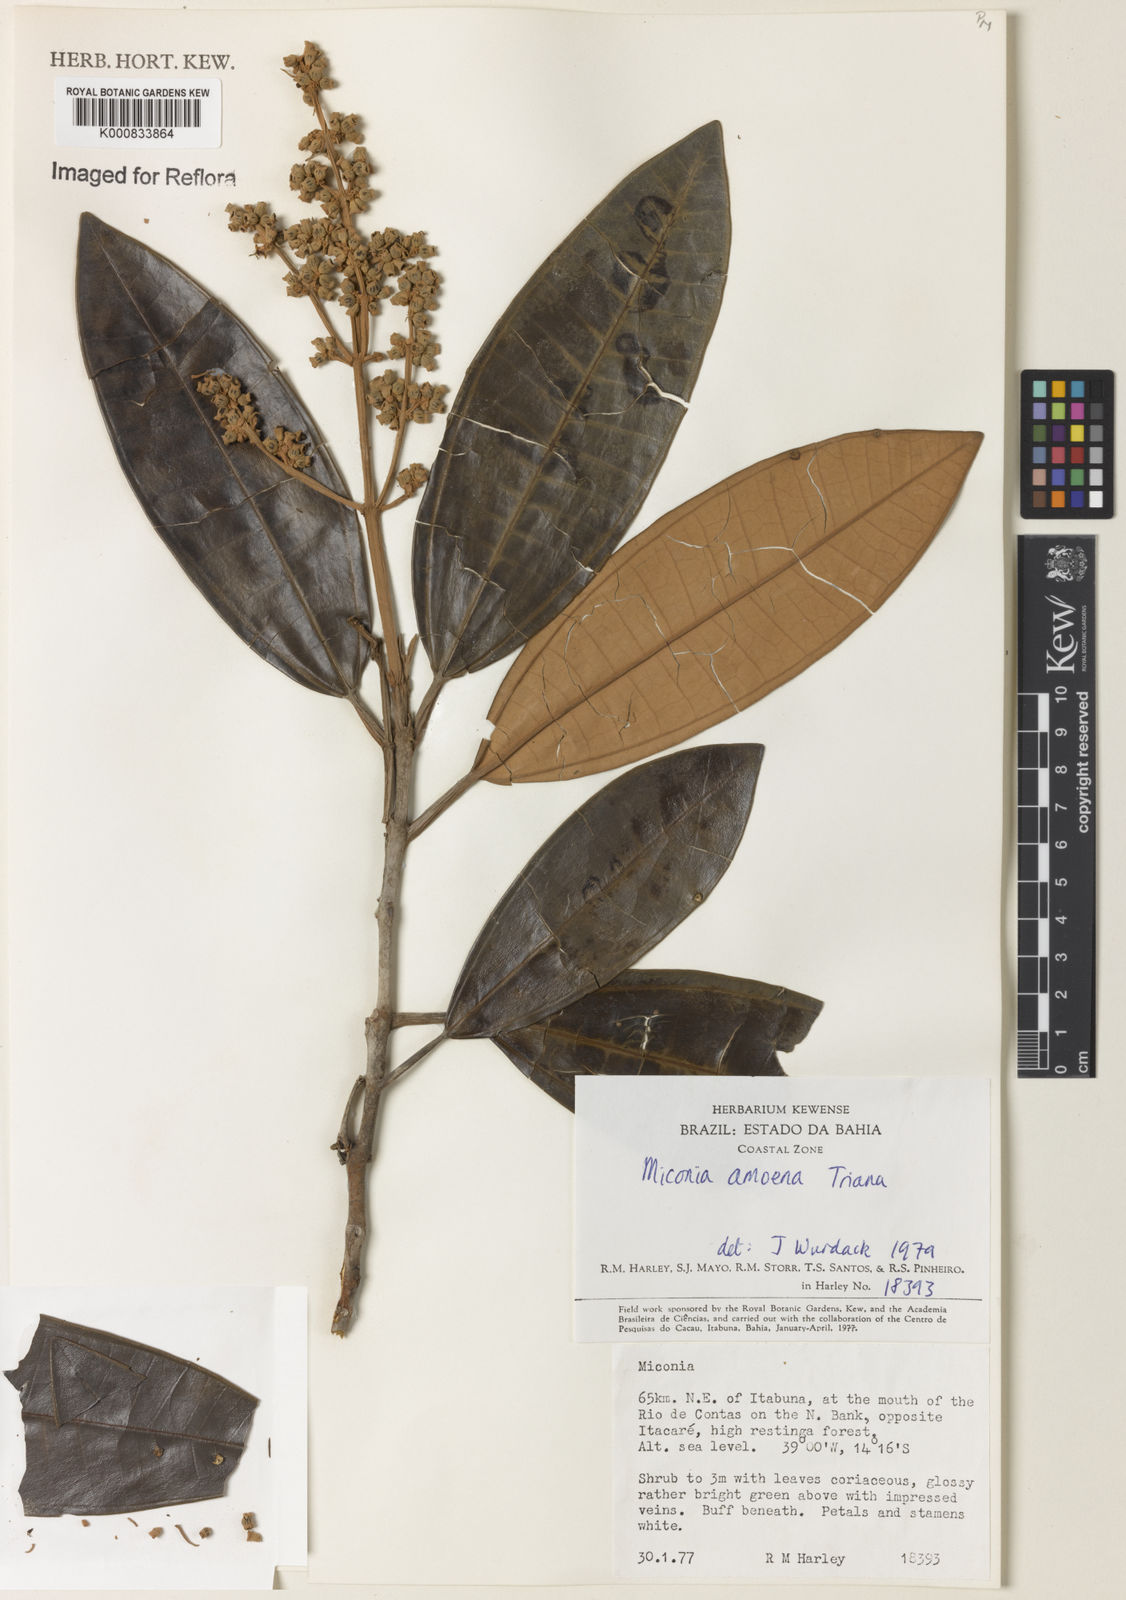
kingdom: Plantae
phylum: Tracheophyta
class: Magnoliopsida
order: Myrtales
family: Melastomataceae
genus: Miconia
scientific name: Miconia amoena
